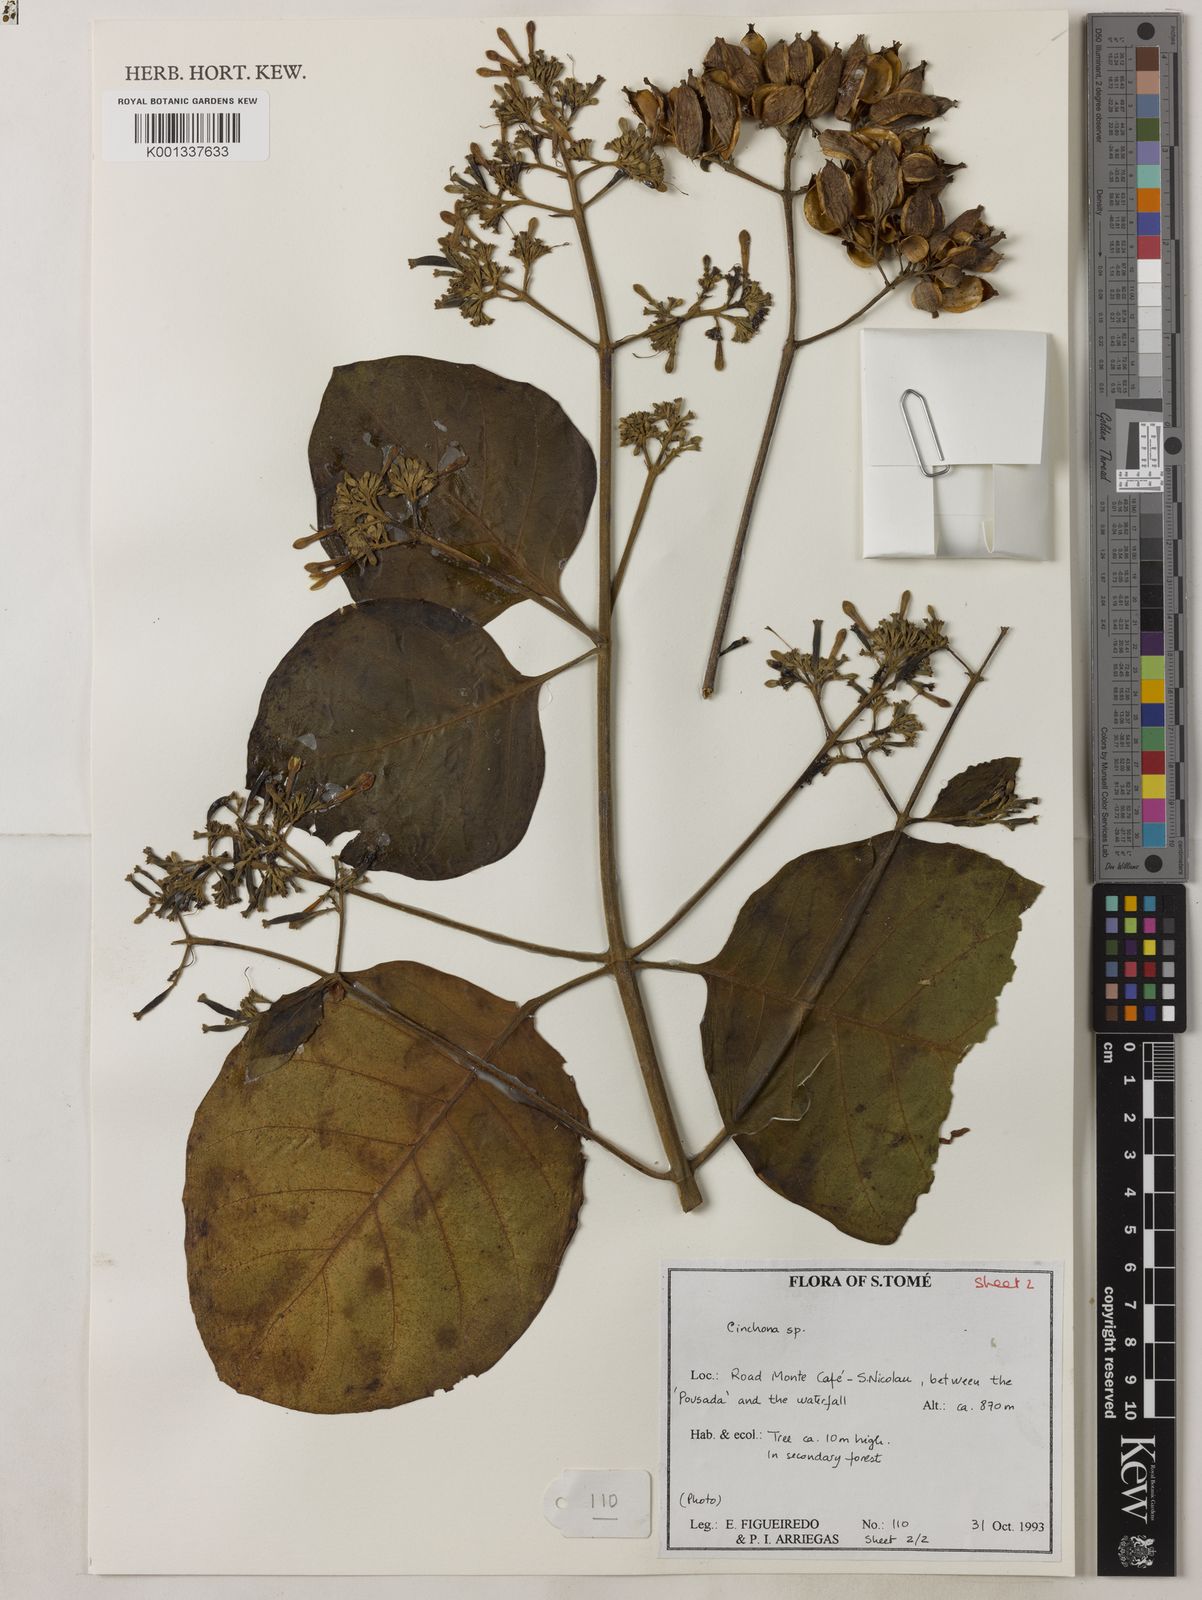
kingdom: Plantae
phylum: Tracheophyta
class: Magnoliopsida
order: Gentianales
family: Rubiaceae
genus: Cinchona
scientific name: Cinchona pubescens
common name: Quinine
